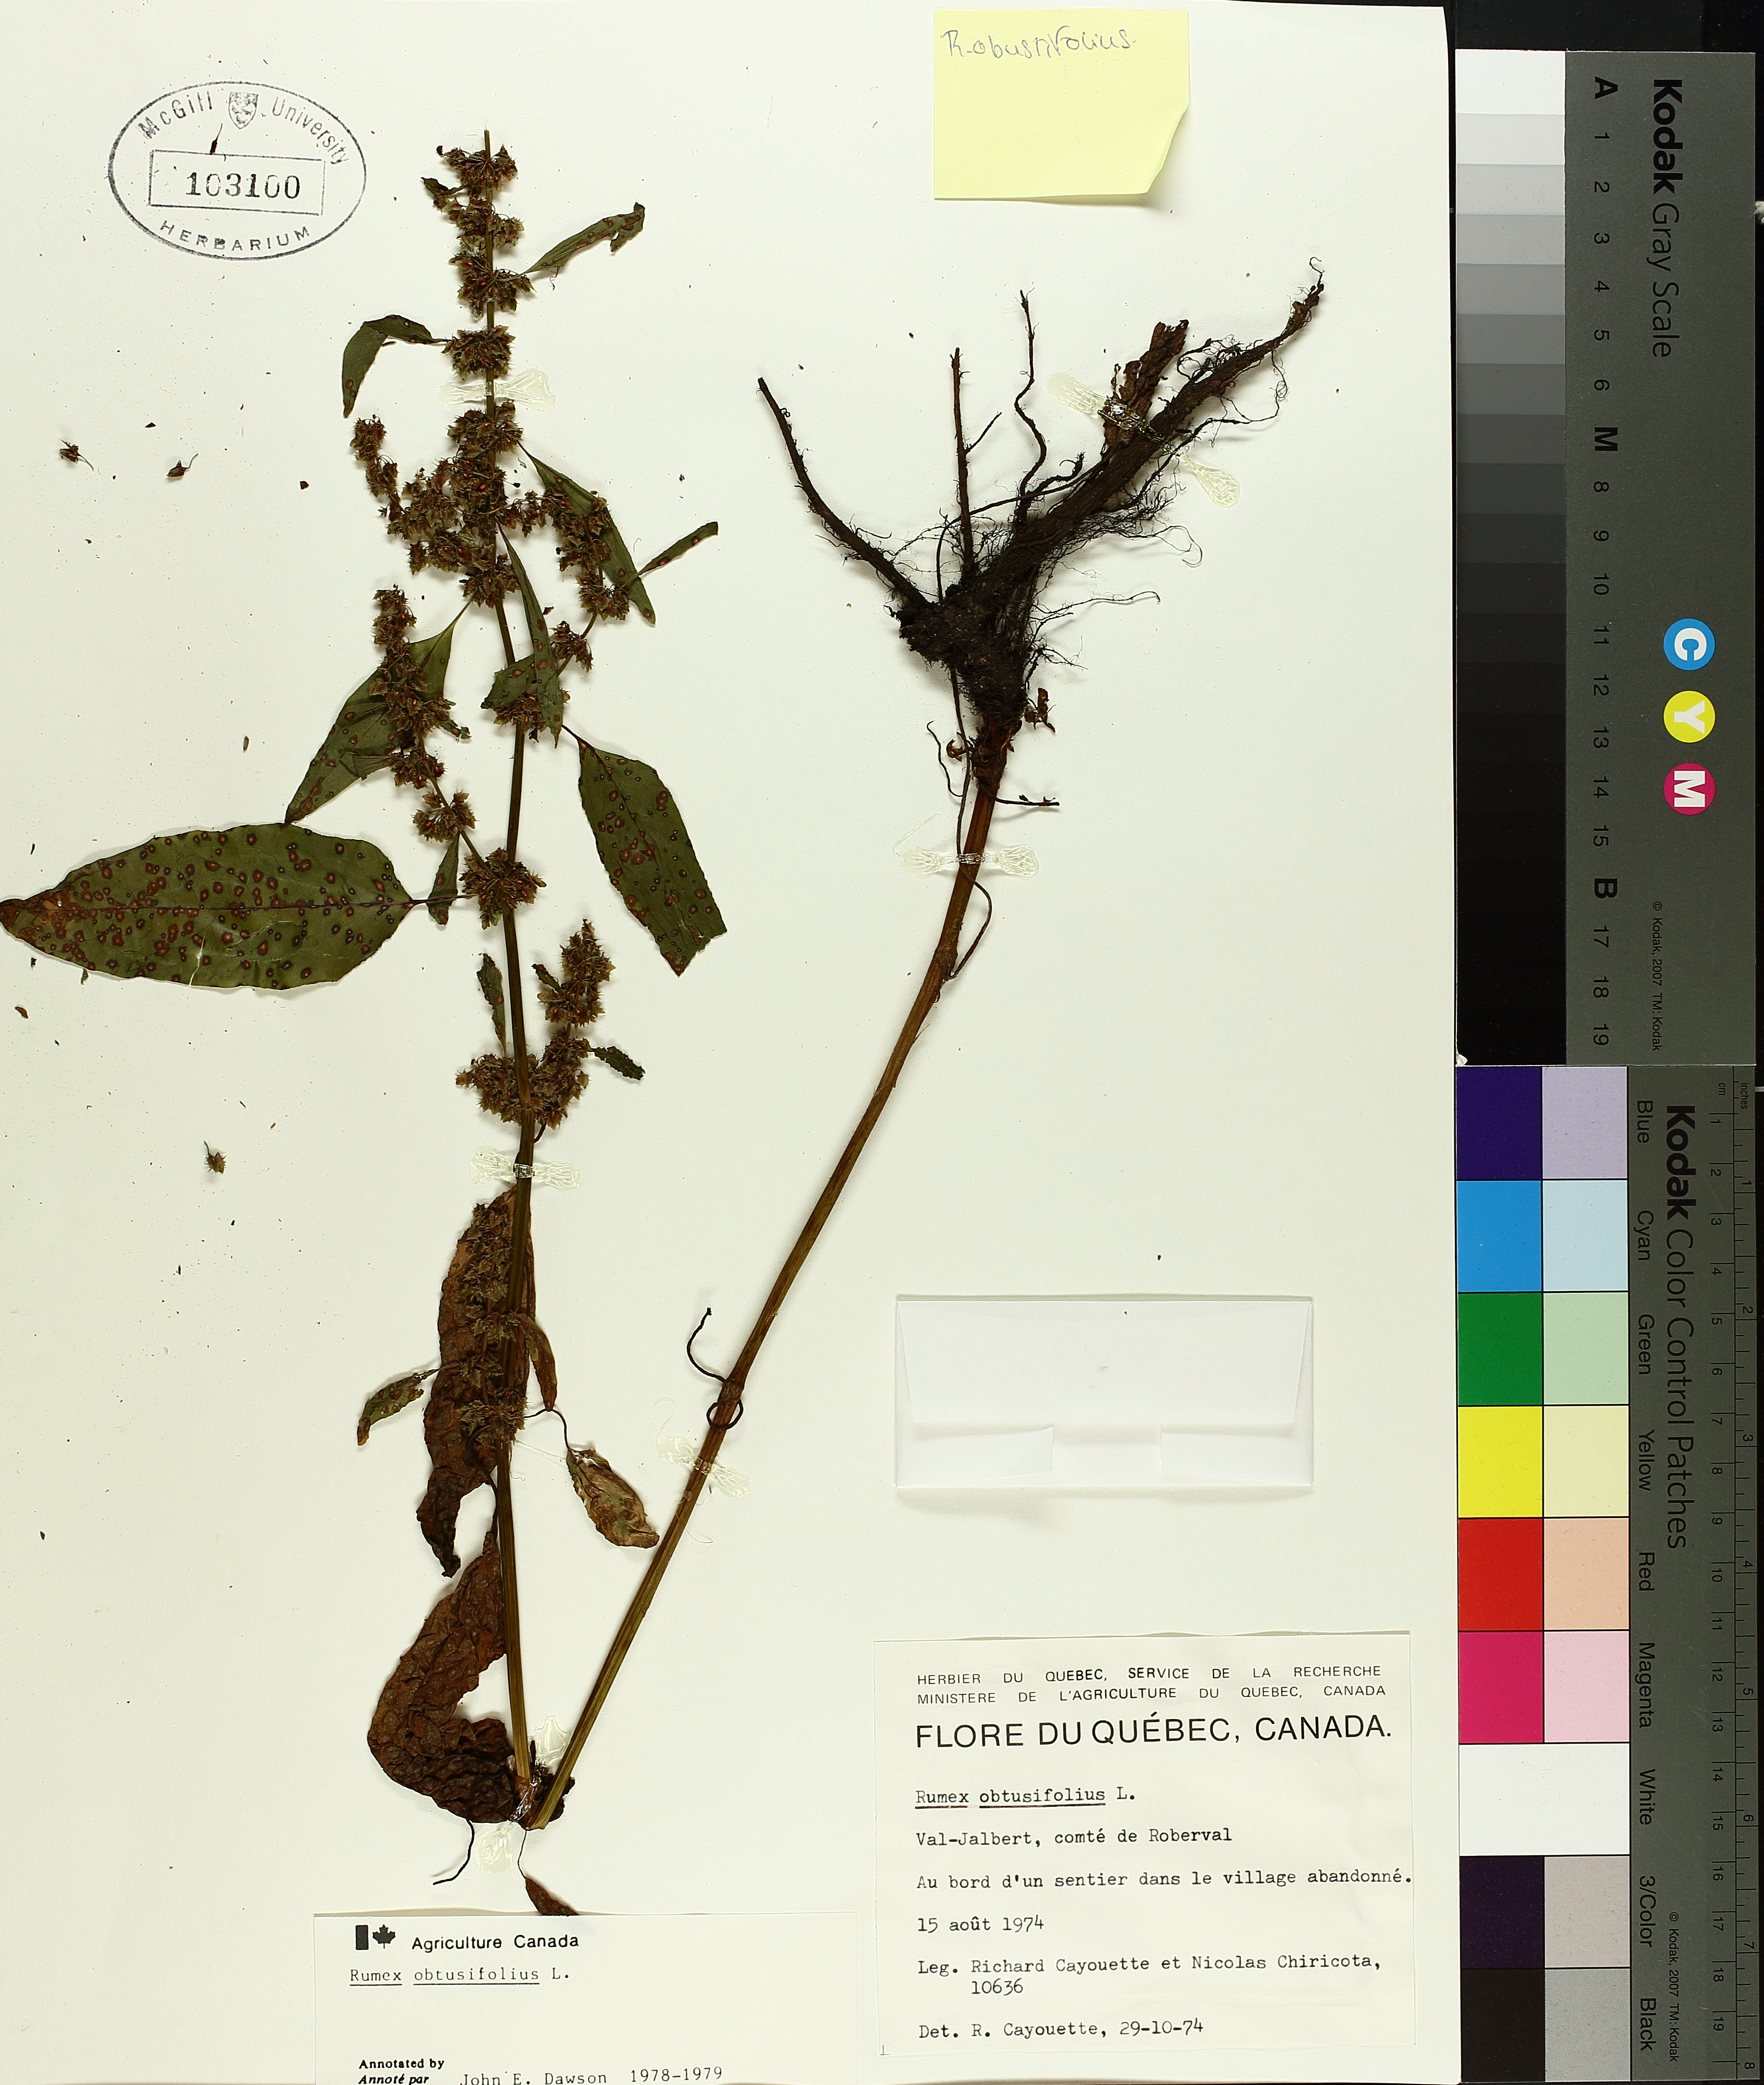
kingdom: Plantae
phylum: Tracheophyta
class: Magnoliopsida
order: Caryophyllales
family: Polygonaceae
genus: Rumex
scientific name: Rumex obtusifolius
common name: Bitter dock
